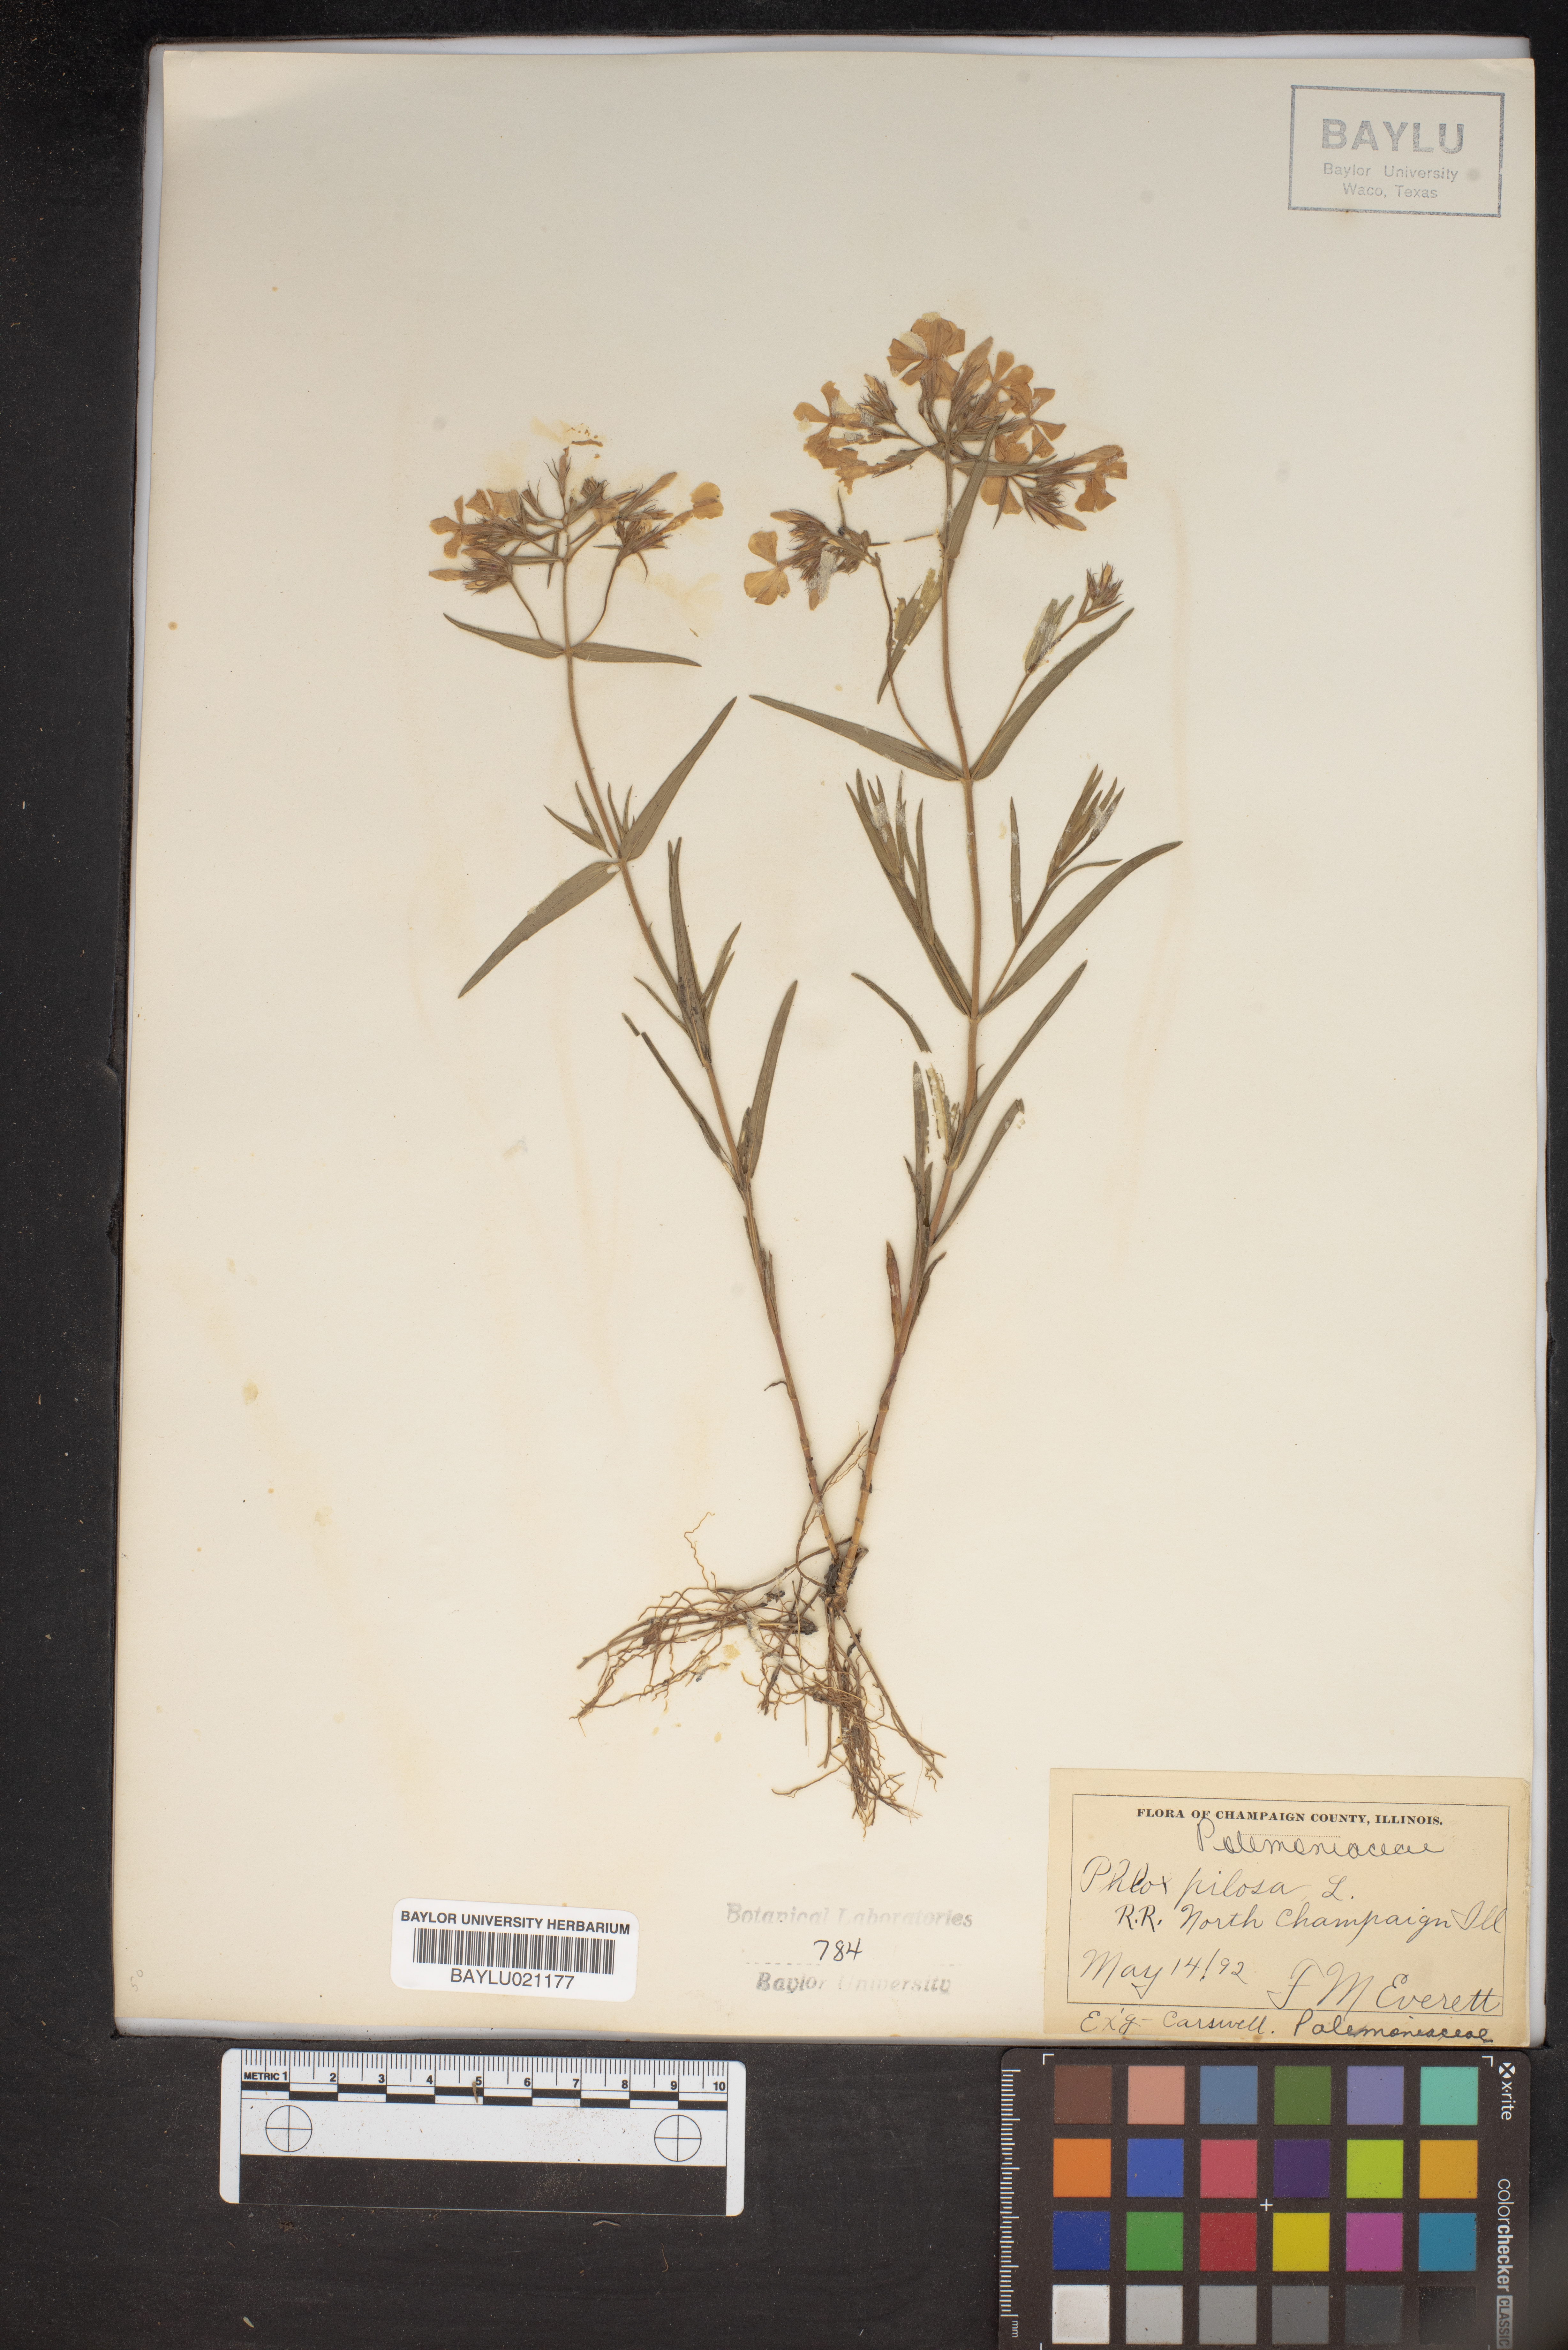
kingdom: Plantae
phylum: Tracheophyta
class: Magnoliopsida
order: Ericales
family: Polemoniaceae
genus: Phlox
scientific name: Phlox pilosa
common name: Prairie phlox
